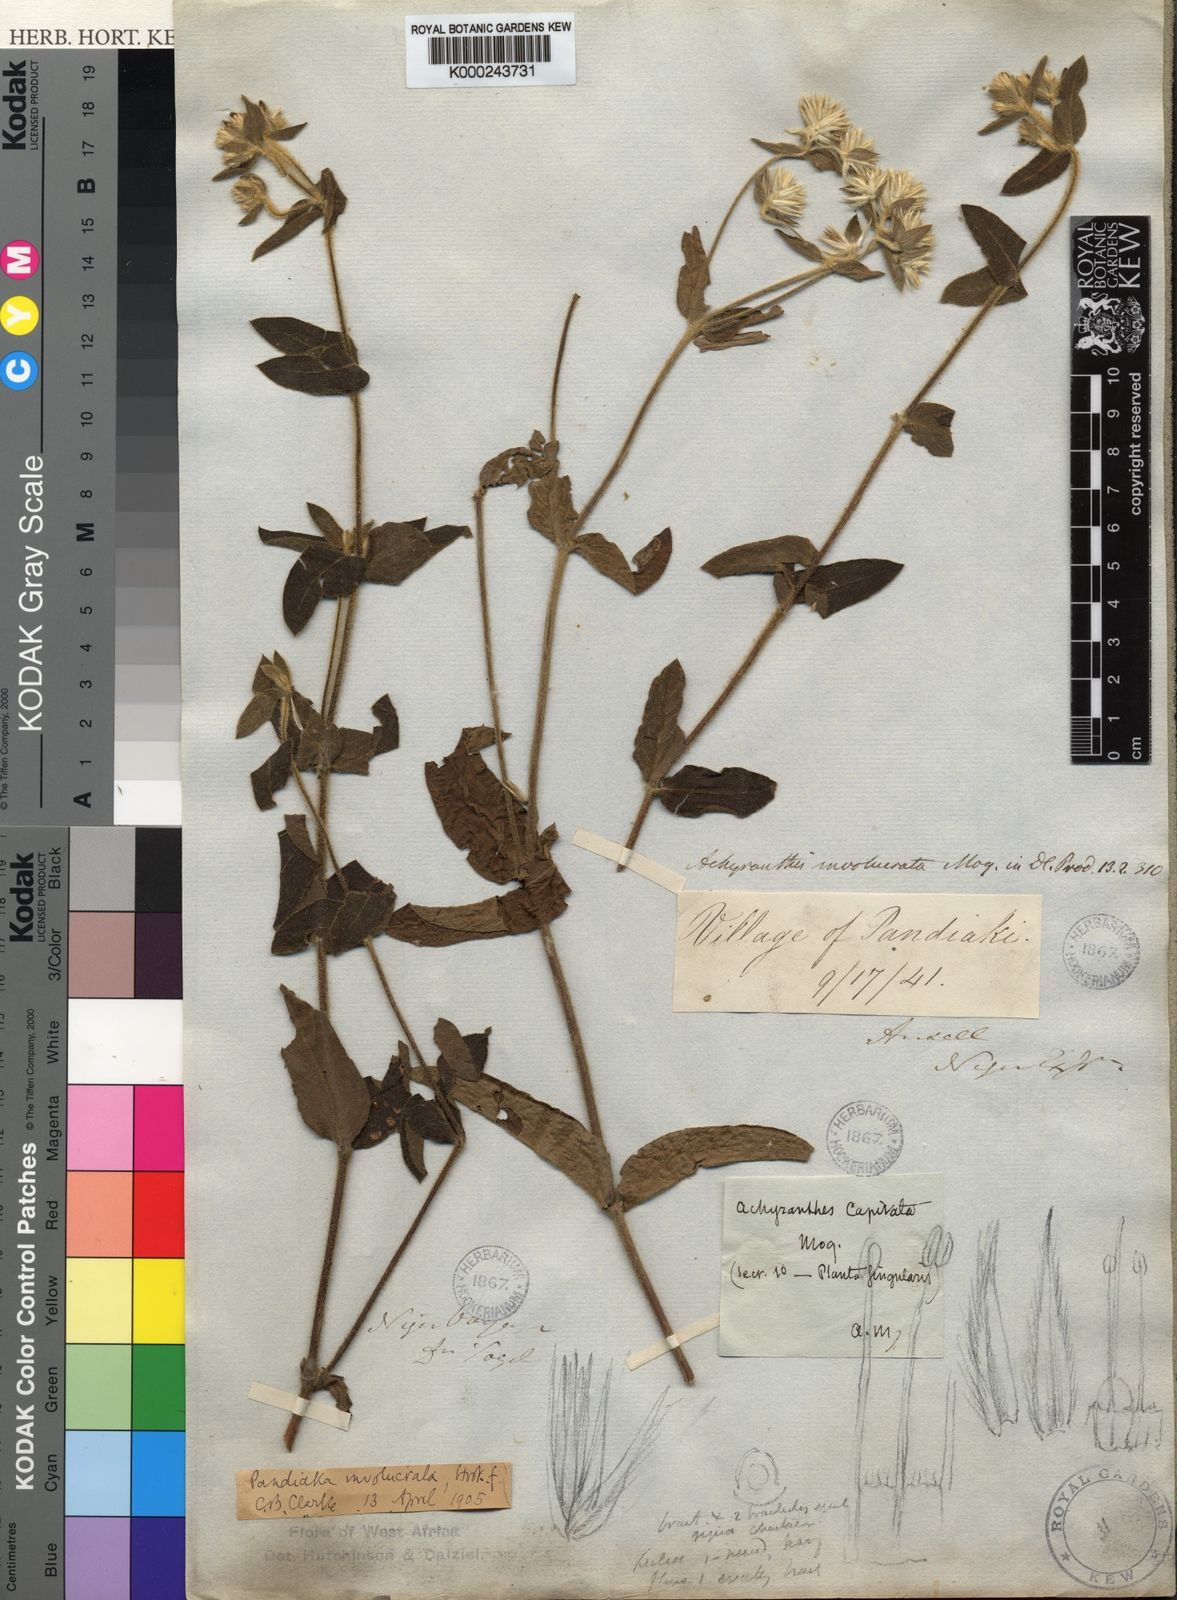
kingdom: Plantae
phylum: Tracheophyta
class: Magnoliopsida
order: Caryophyllales
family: Amaranthaceae
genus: Pandiaka
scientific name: Pandiaka
